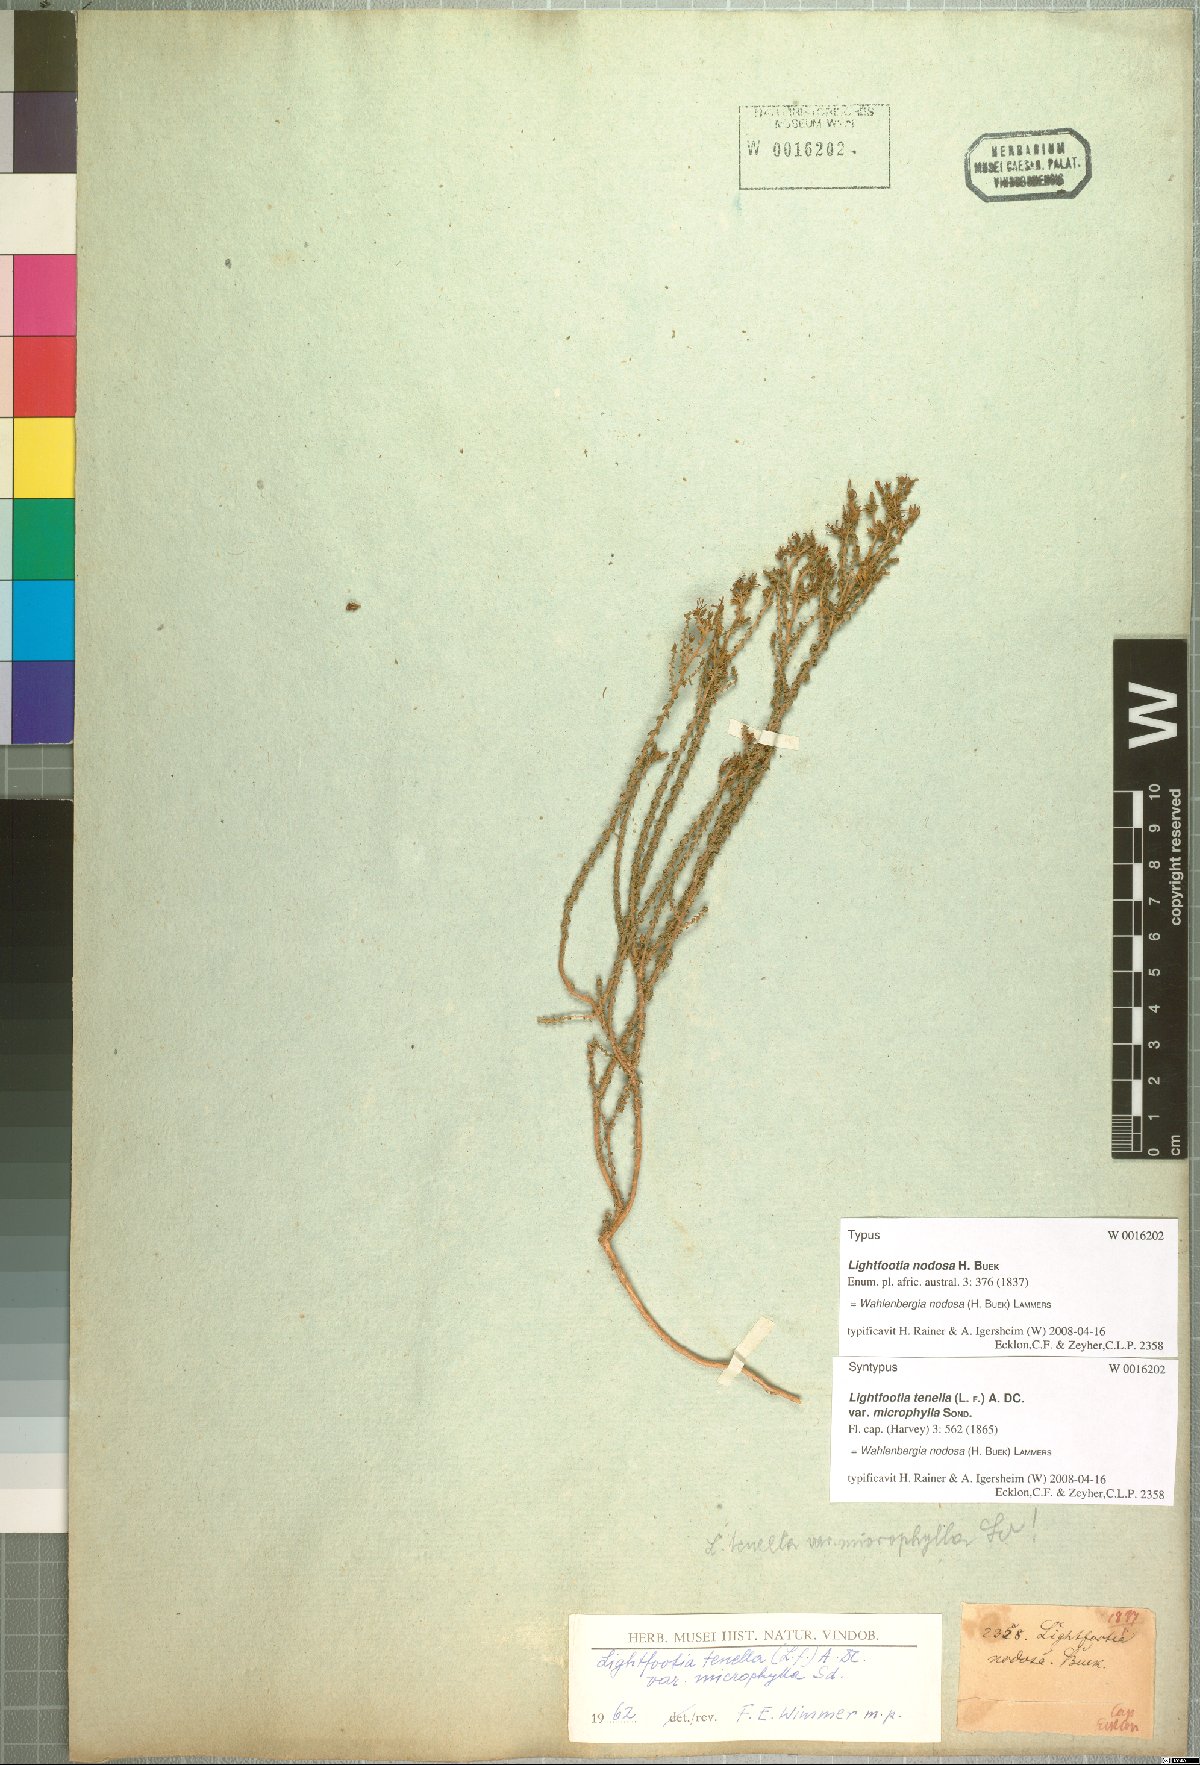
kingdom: Plantae
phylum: Tracheophyta
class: Magnoliopsida
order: Asterales
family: Campanulaceae
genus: Wahlenbergia
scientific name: Wahlenbergia nodosa
